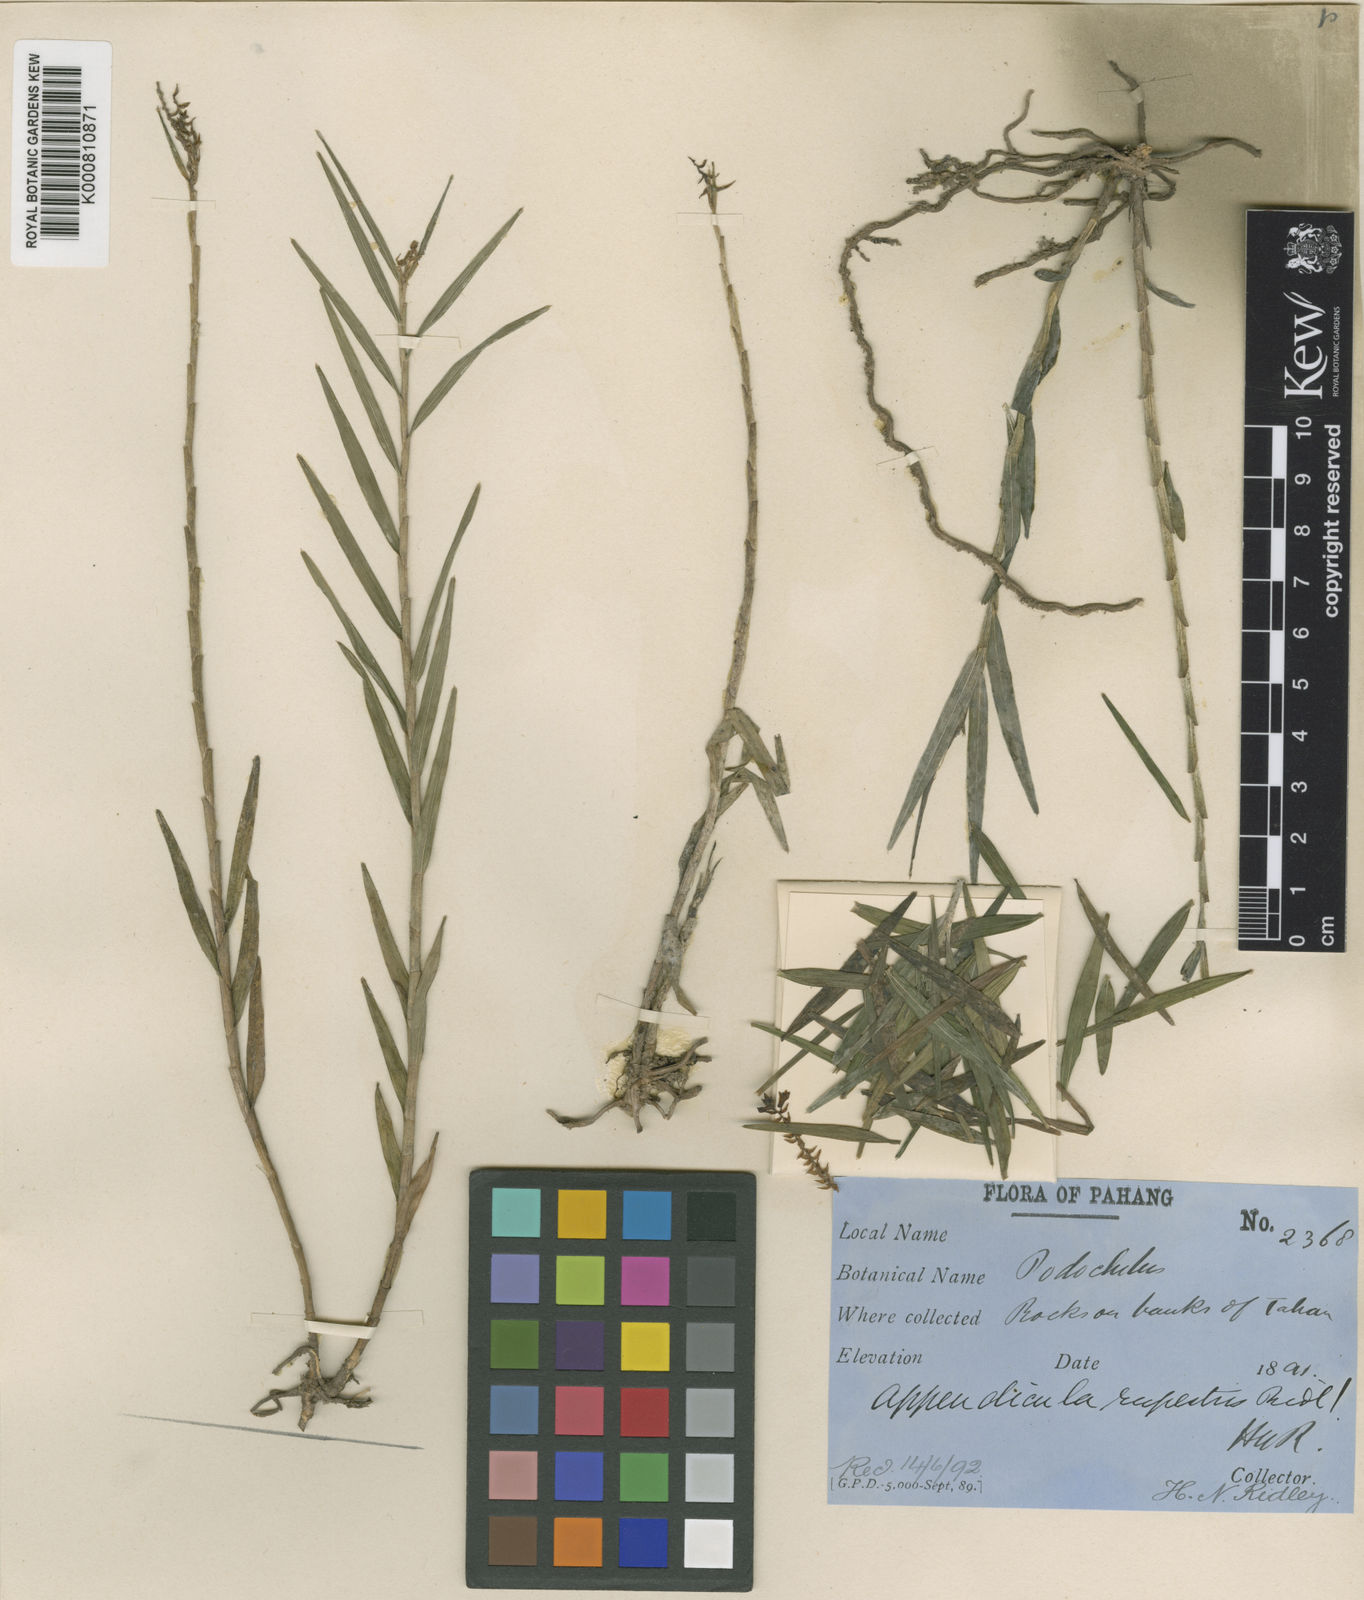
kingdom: Plantae
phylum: Tracheophyta
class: Liliopsida
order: Asparagales
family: Orchidaceae
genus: Appendicula
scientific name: Appendicula rupestris
